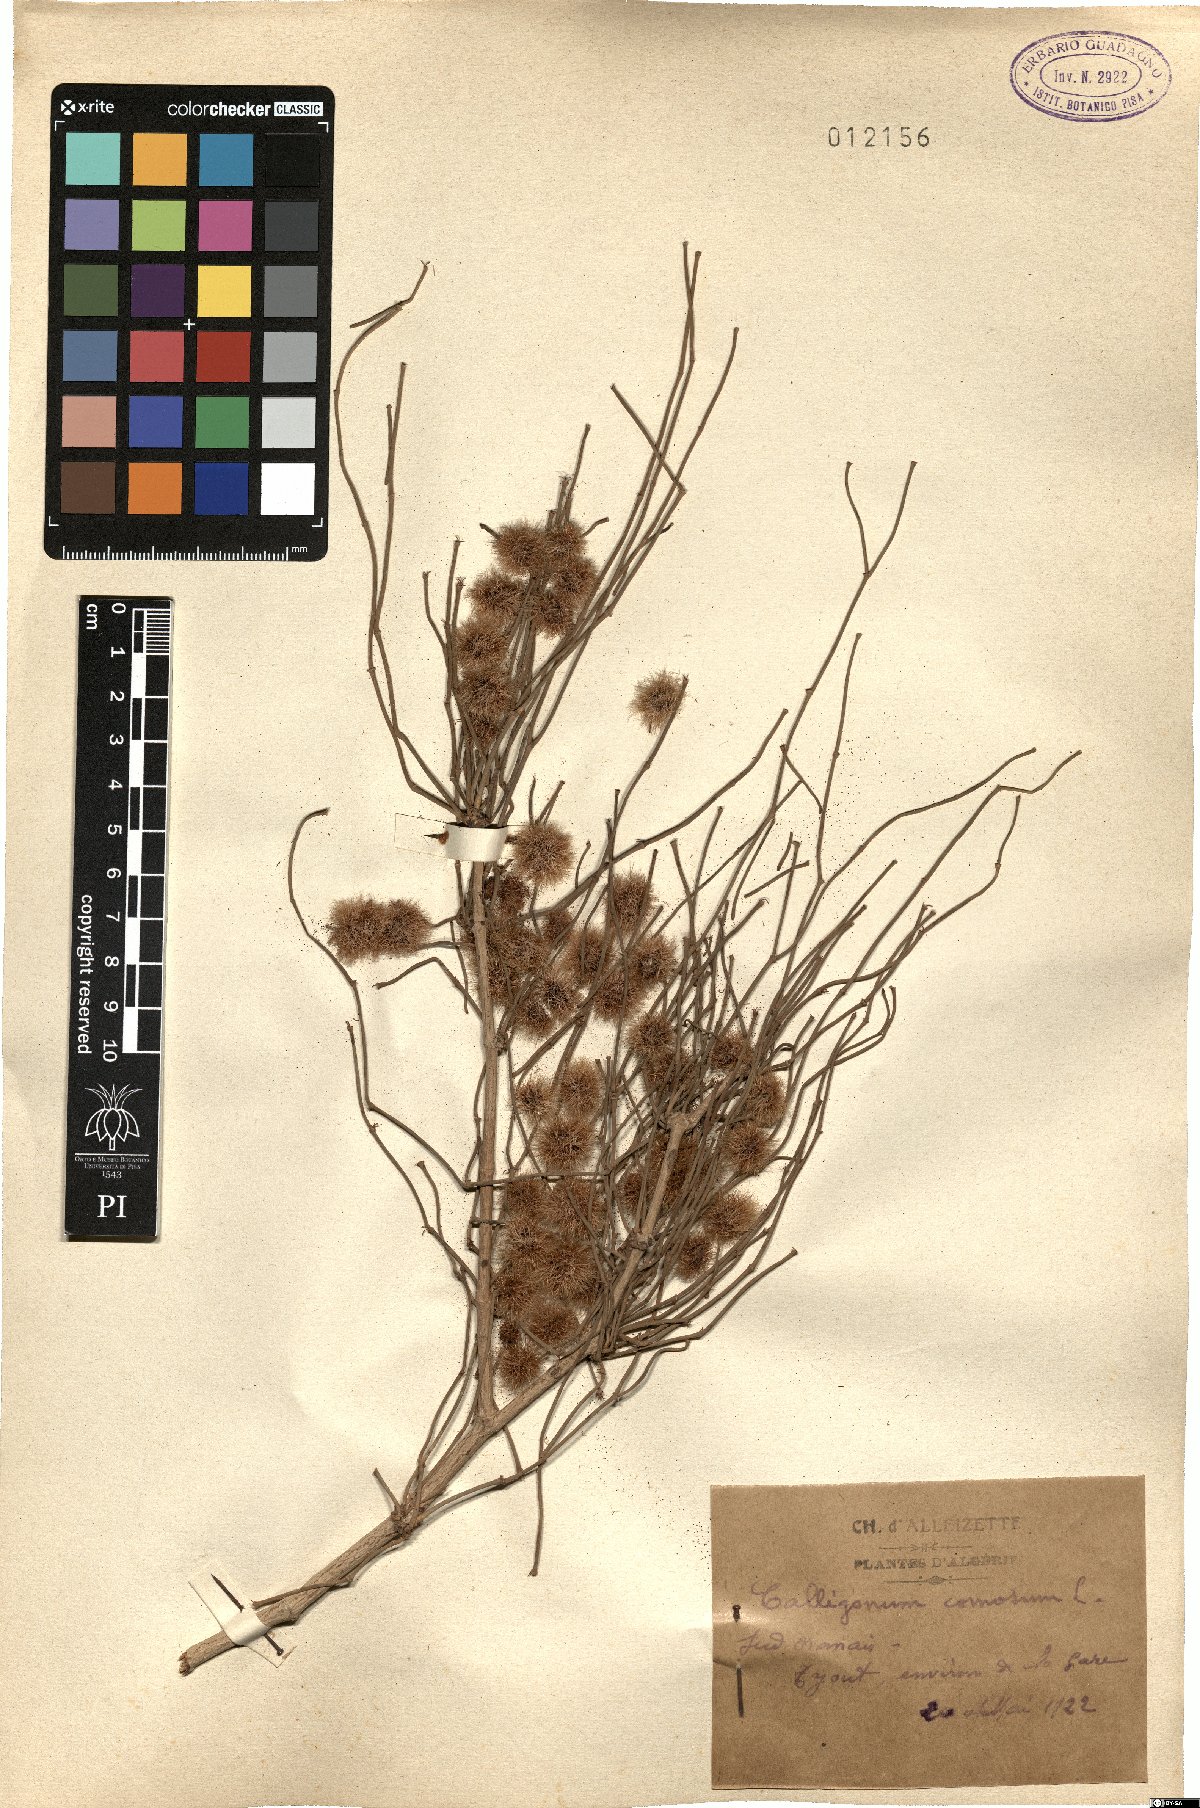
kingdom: Plantae
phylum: Tracheophyta
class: Magnoliopsida
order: Caryophyllales
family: Polygonaceae
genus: Calligonum
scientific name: Calligonum comosum
